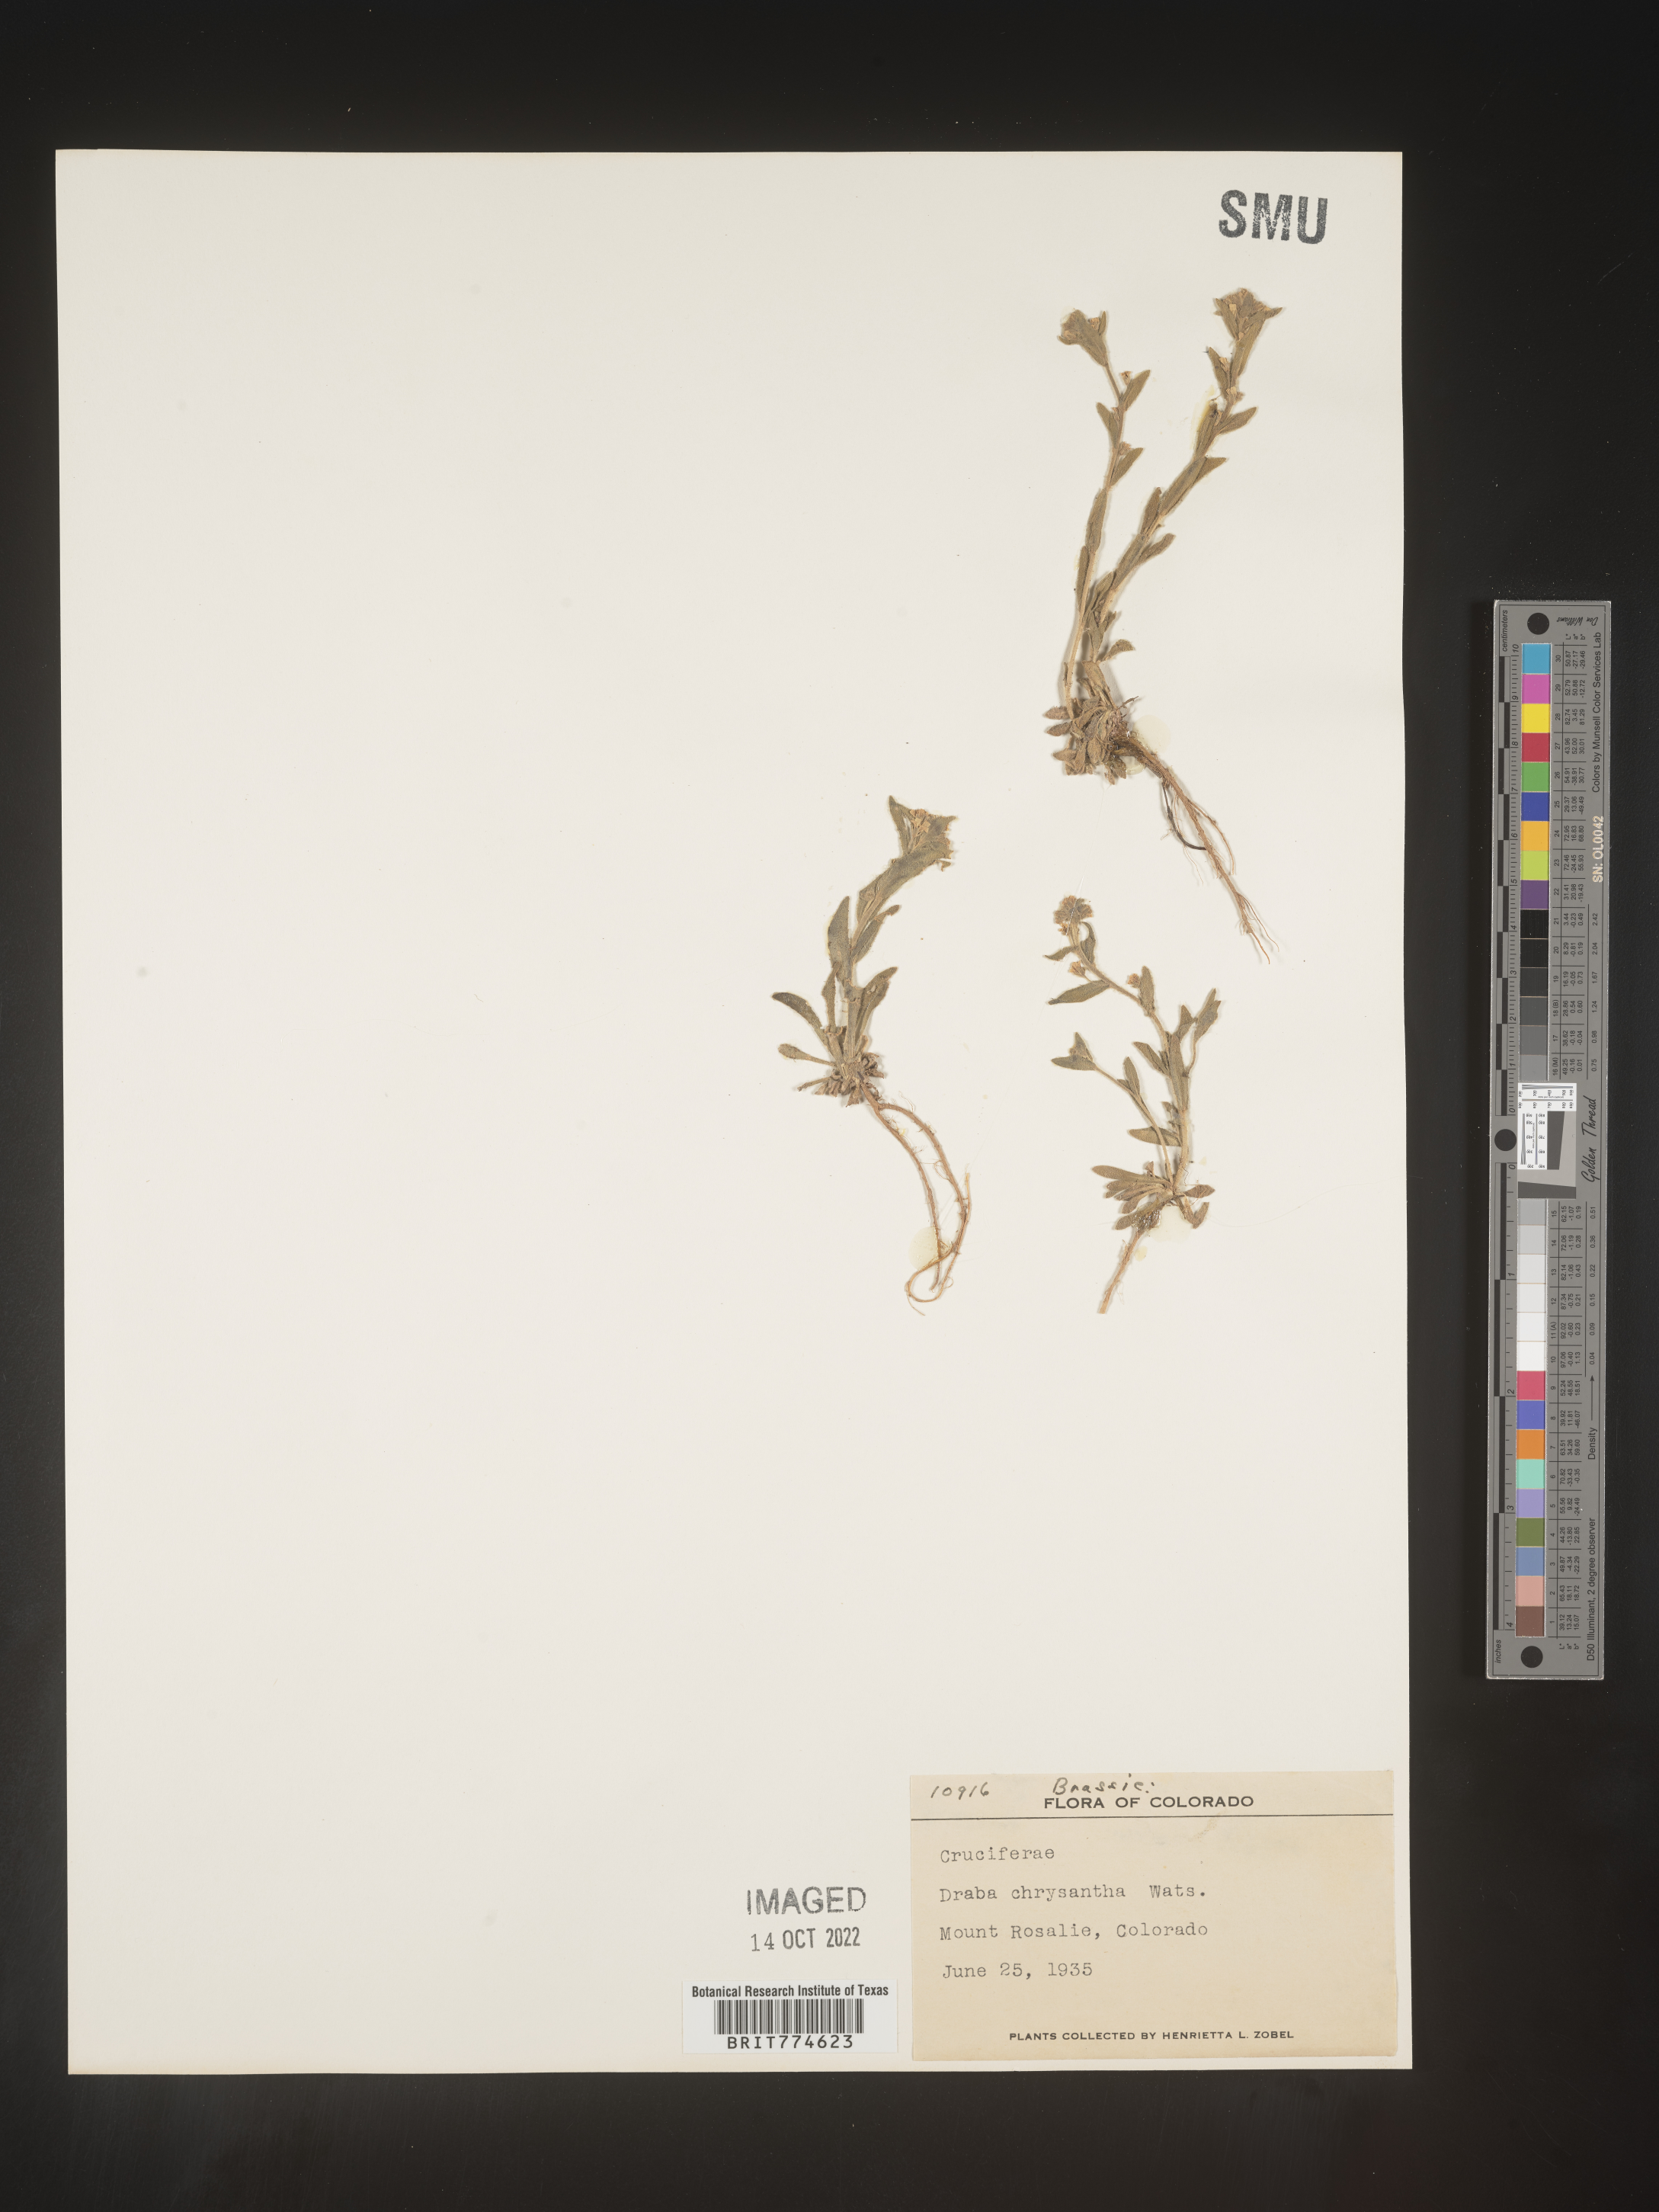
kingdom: Plantae
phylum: Tracheophyta
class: Magnoliopsida
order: Brassicales
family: Brassicaceae
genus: Draba
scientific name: Draba
